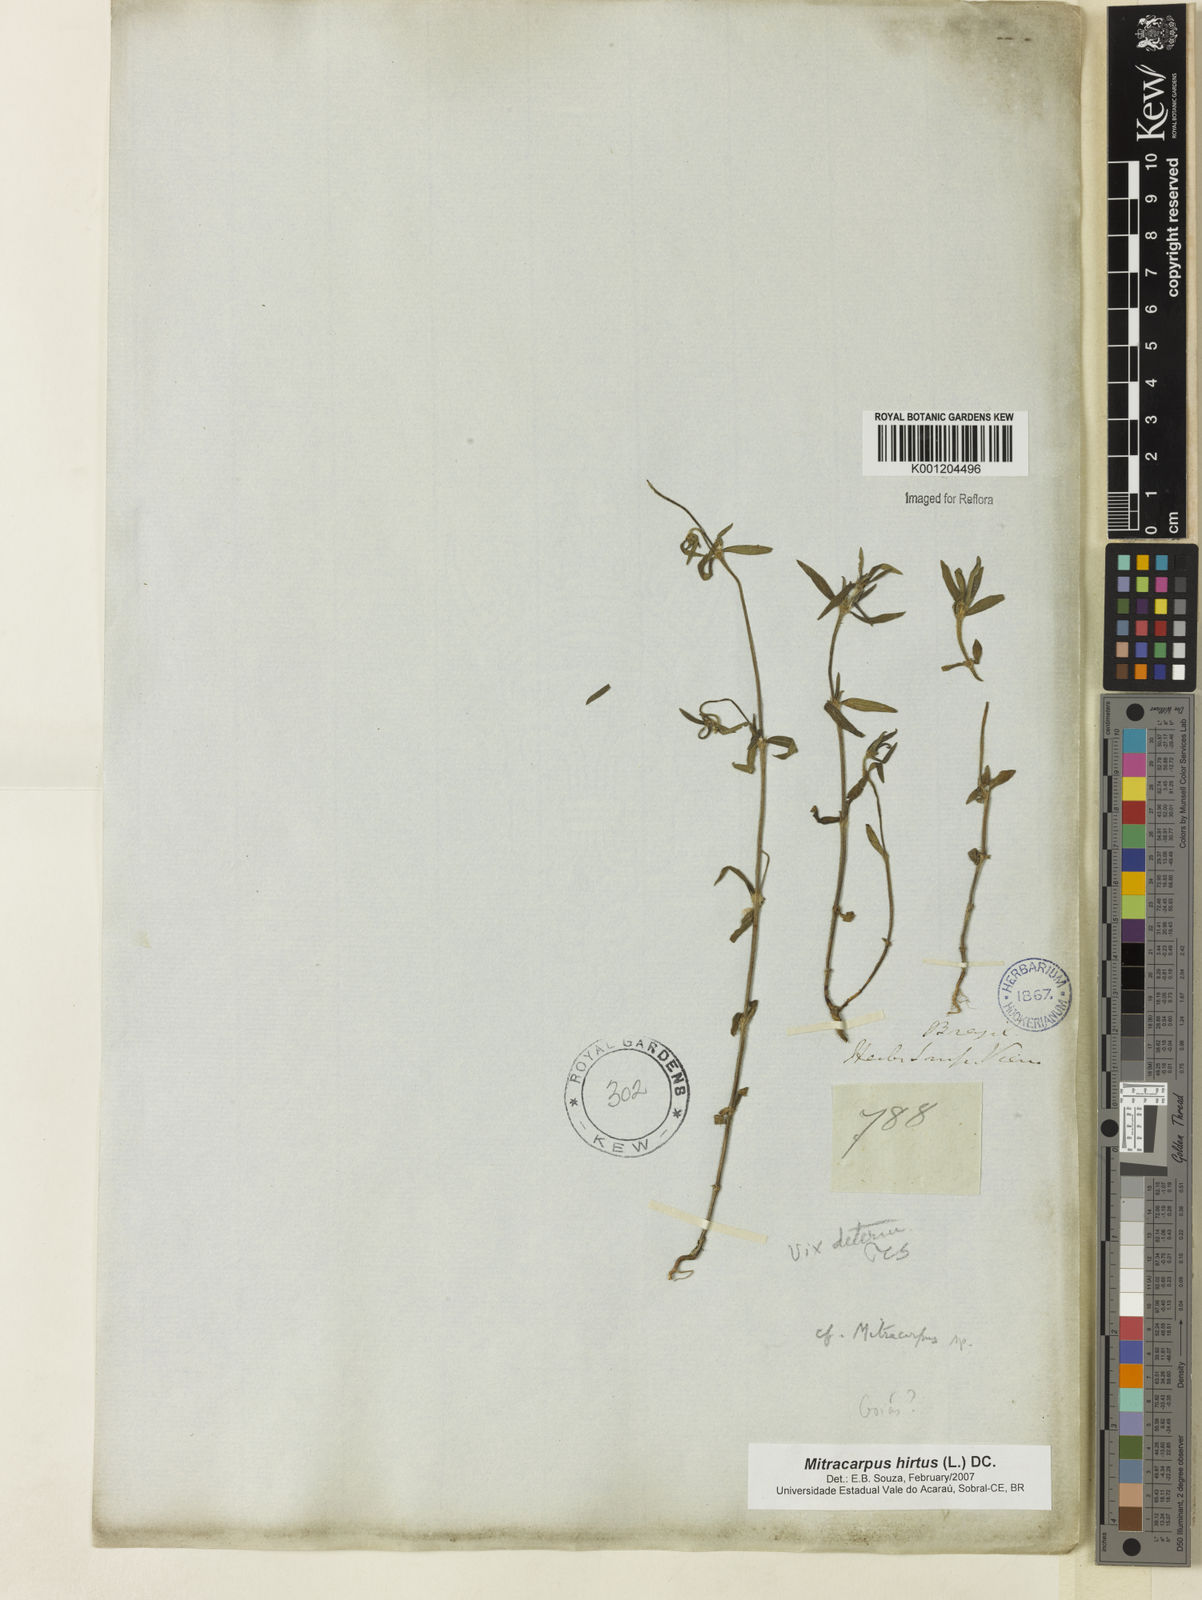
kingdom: Plantae
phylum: Tracheophyta
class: Magnoliopsida
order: Gentianales
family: Rubiaceae
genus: Mitracarpus
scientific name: Mitracarpus hirtus
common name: Tropical girdlepod
